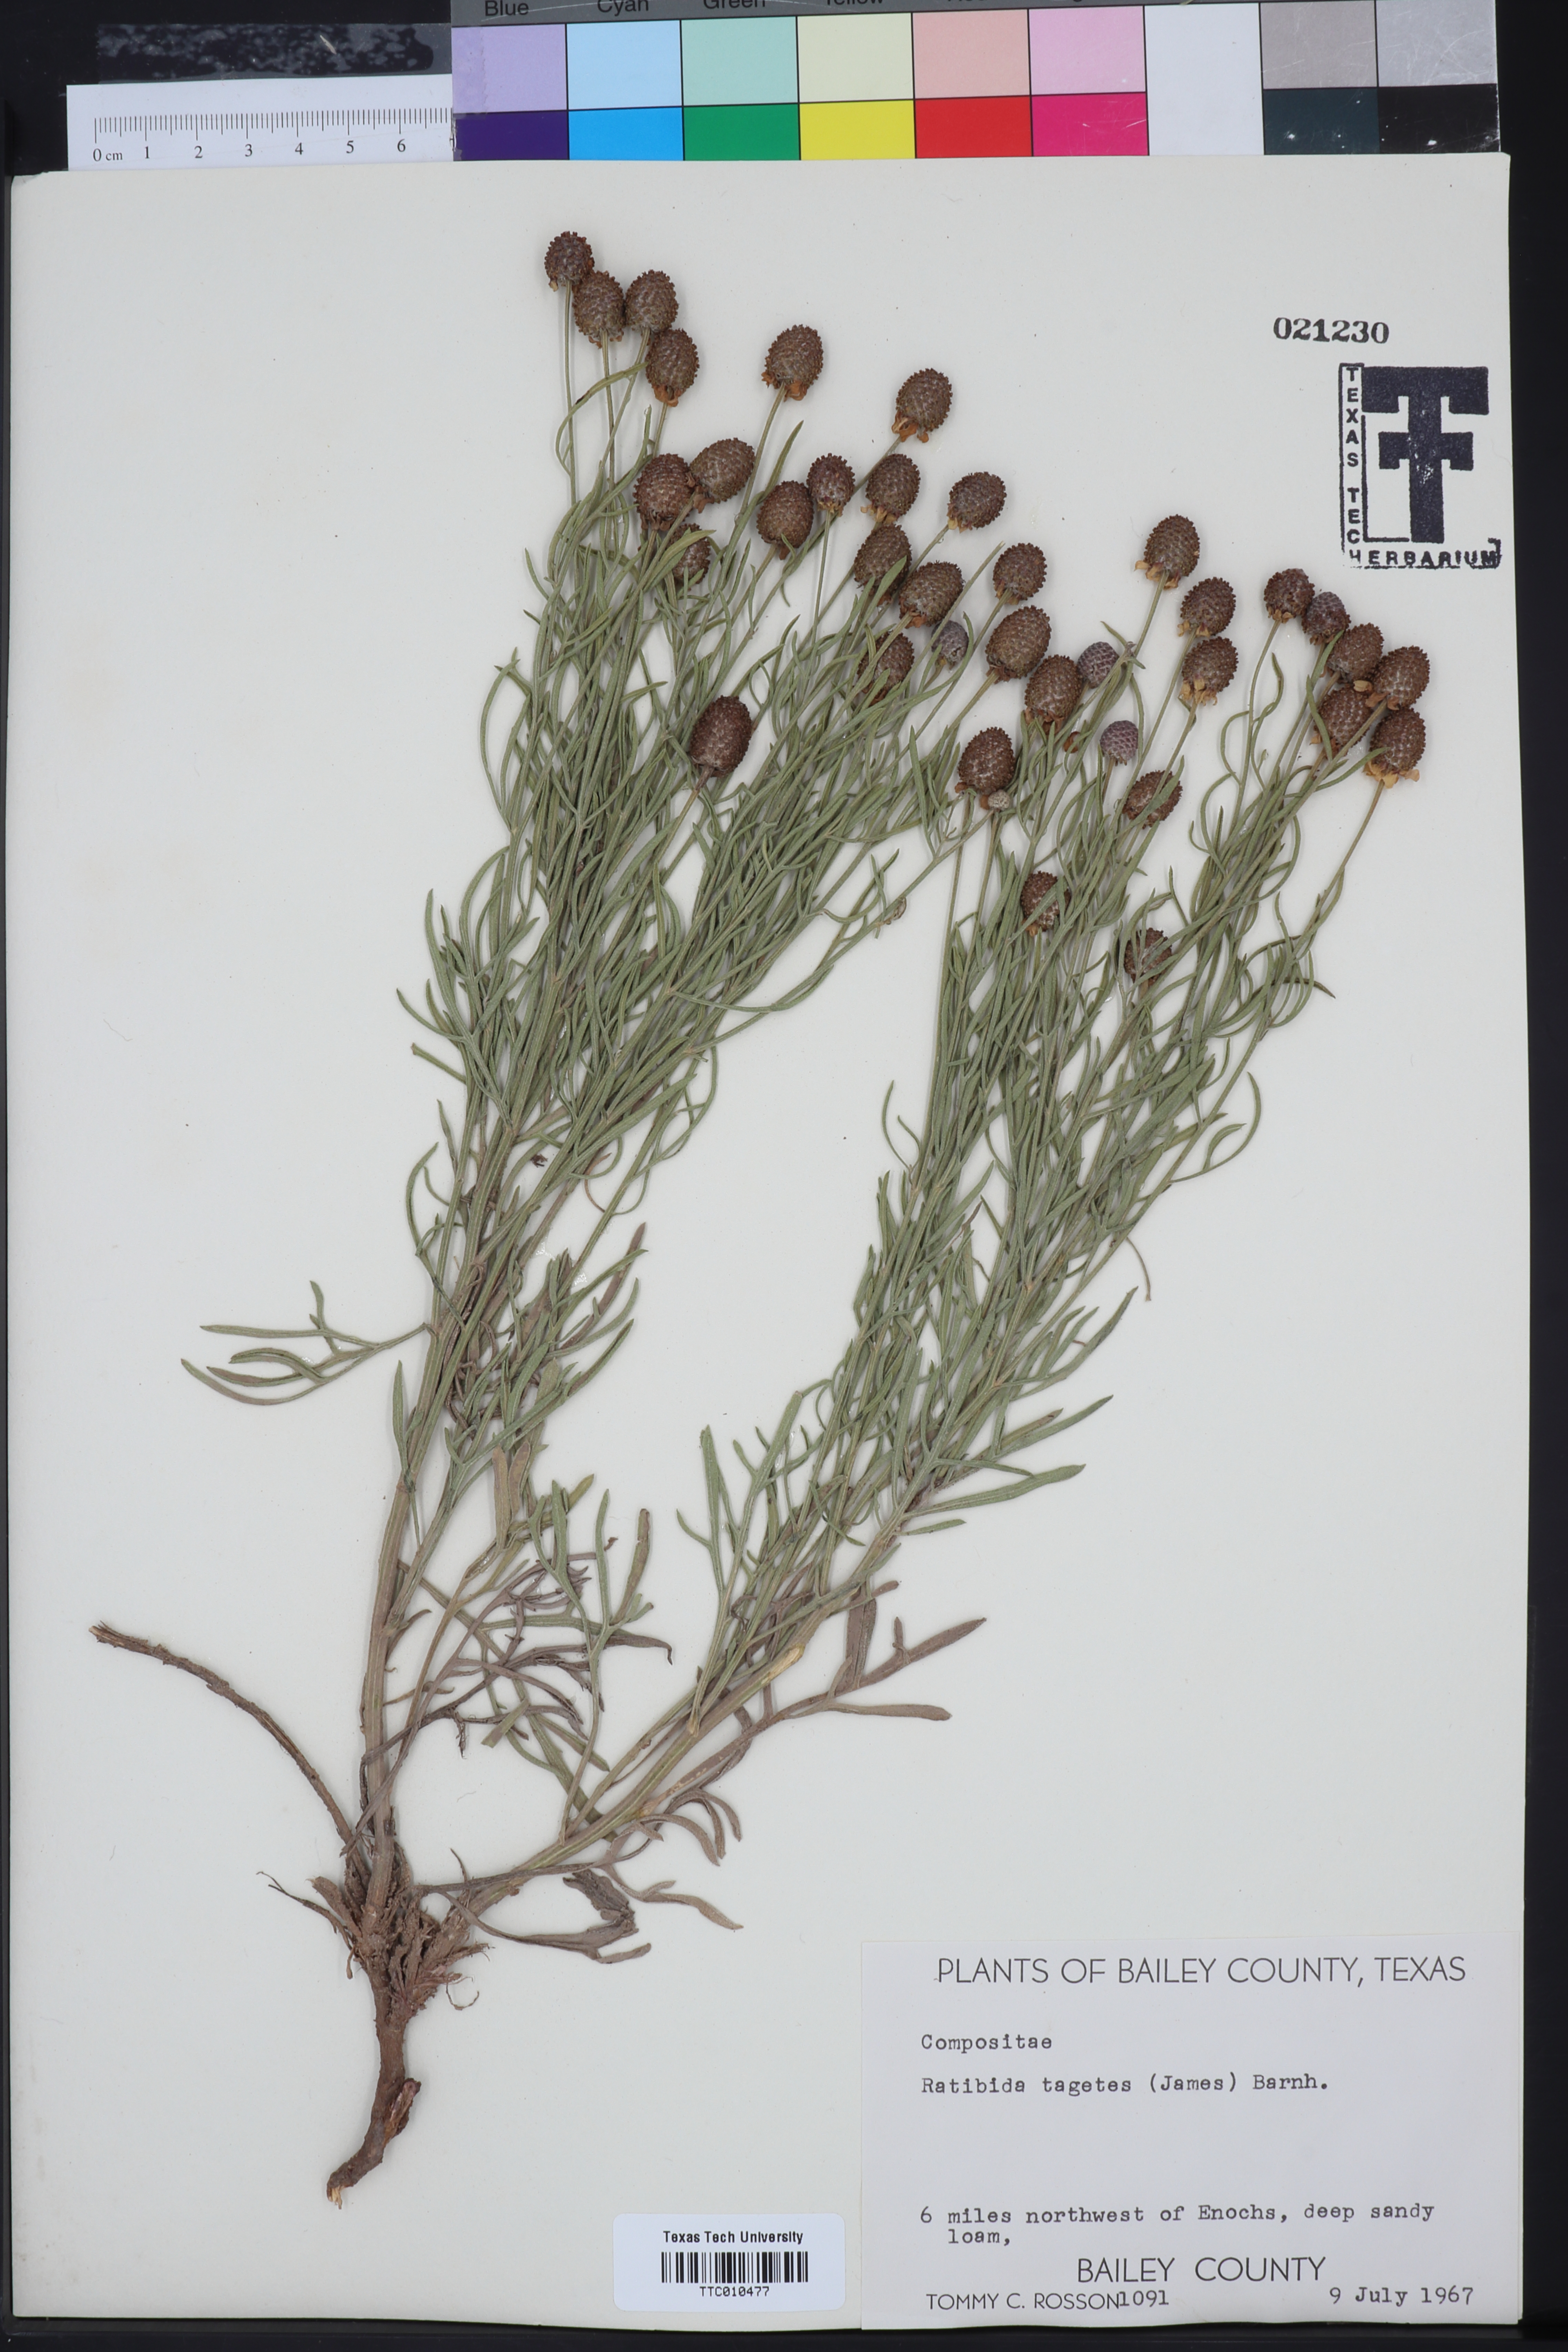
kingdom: Plantae
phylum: Tracheophyta
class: Magnoliopsida
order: Asterales
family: Asteraceae
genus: Ratibida
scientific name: Ratibida tagetes
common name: Green mexican-hat
